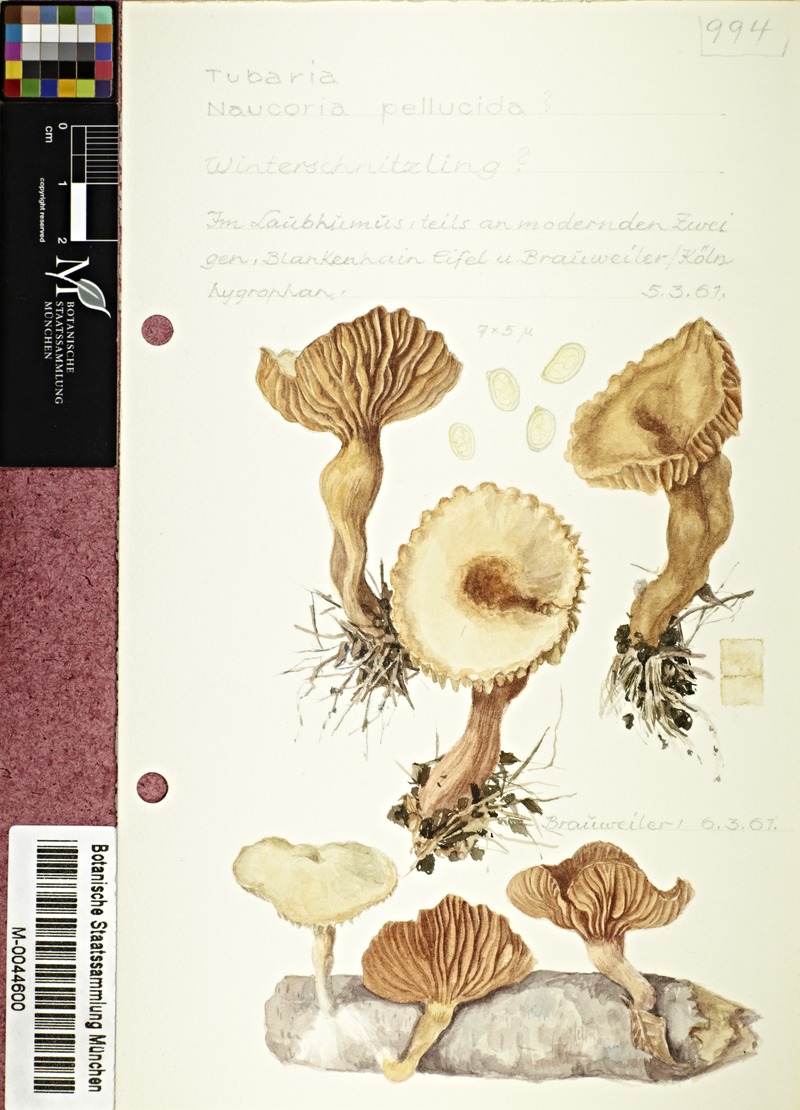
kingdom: Fungi
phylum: Basidiomycota
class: Agaricomycetes
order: Agaricales
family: Tubariaceae
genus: Tubaria
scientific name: Tubaria romagnesiana
